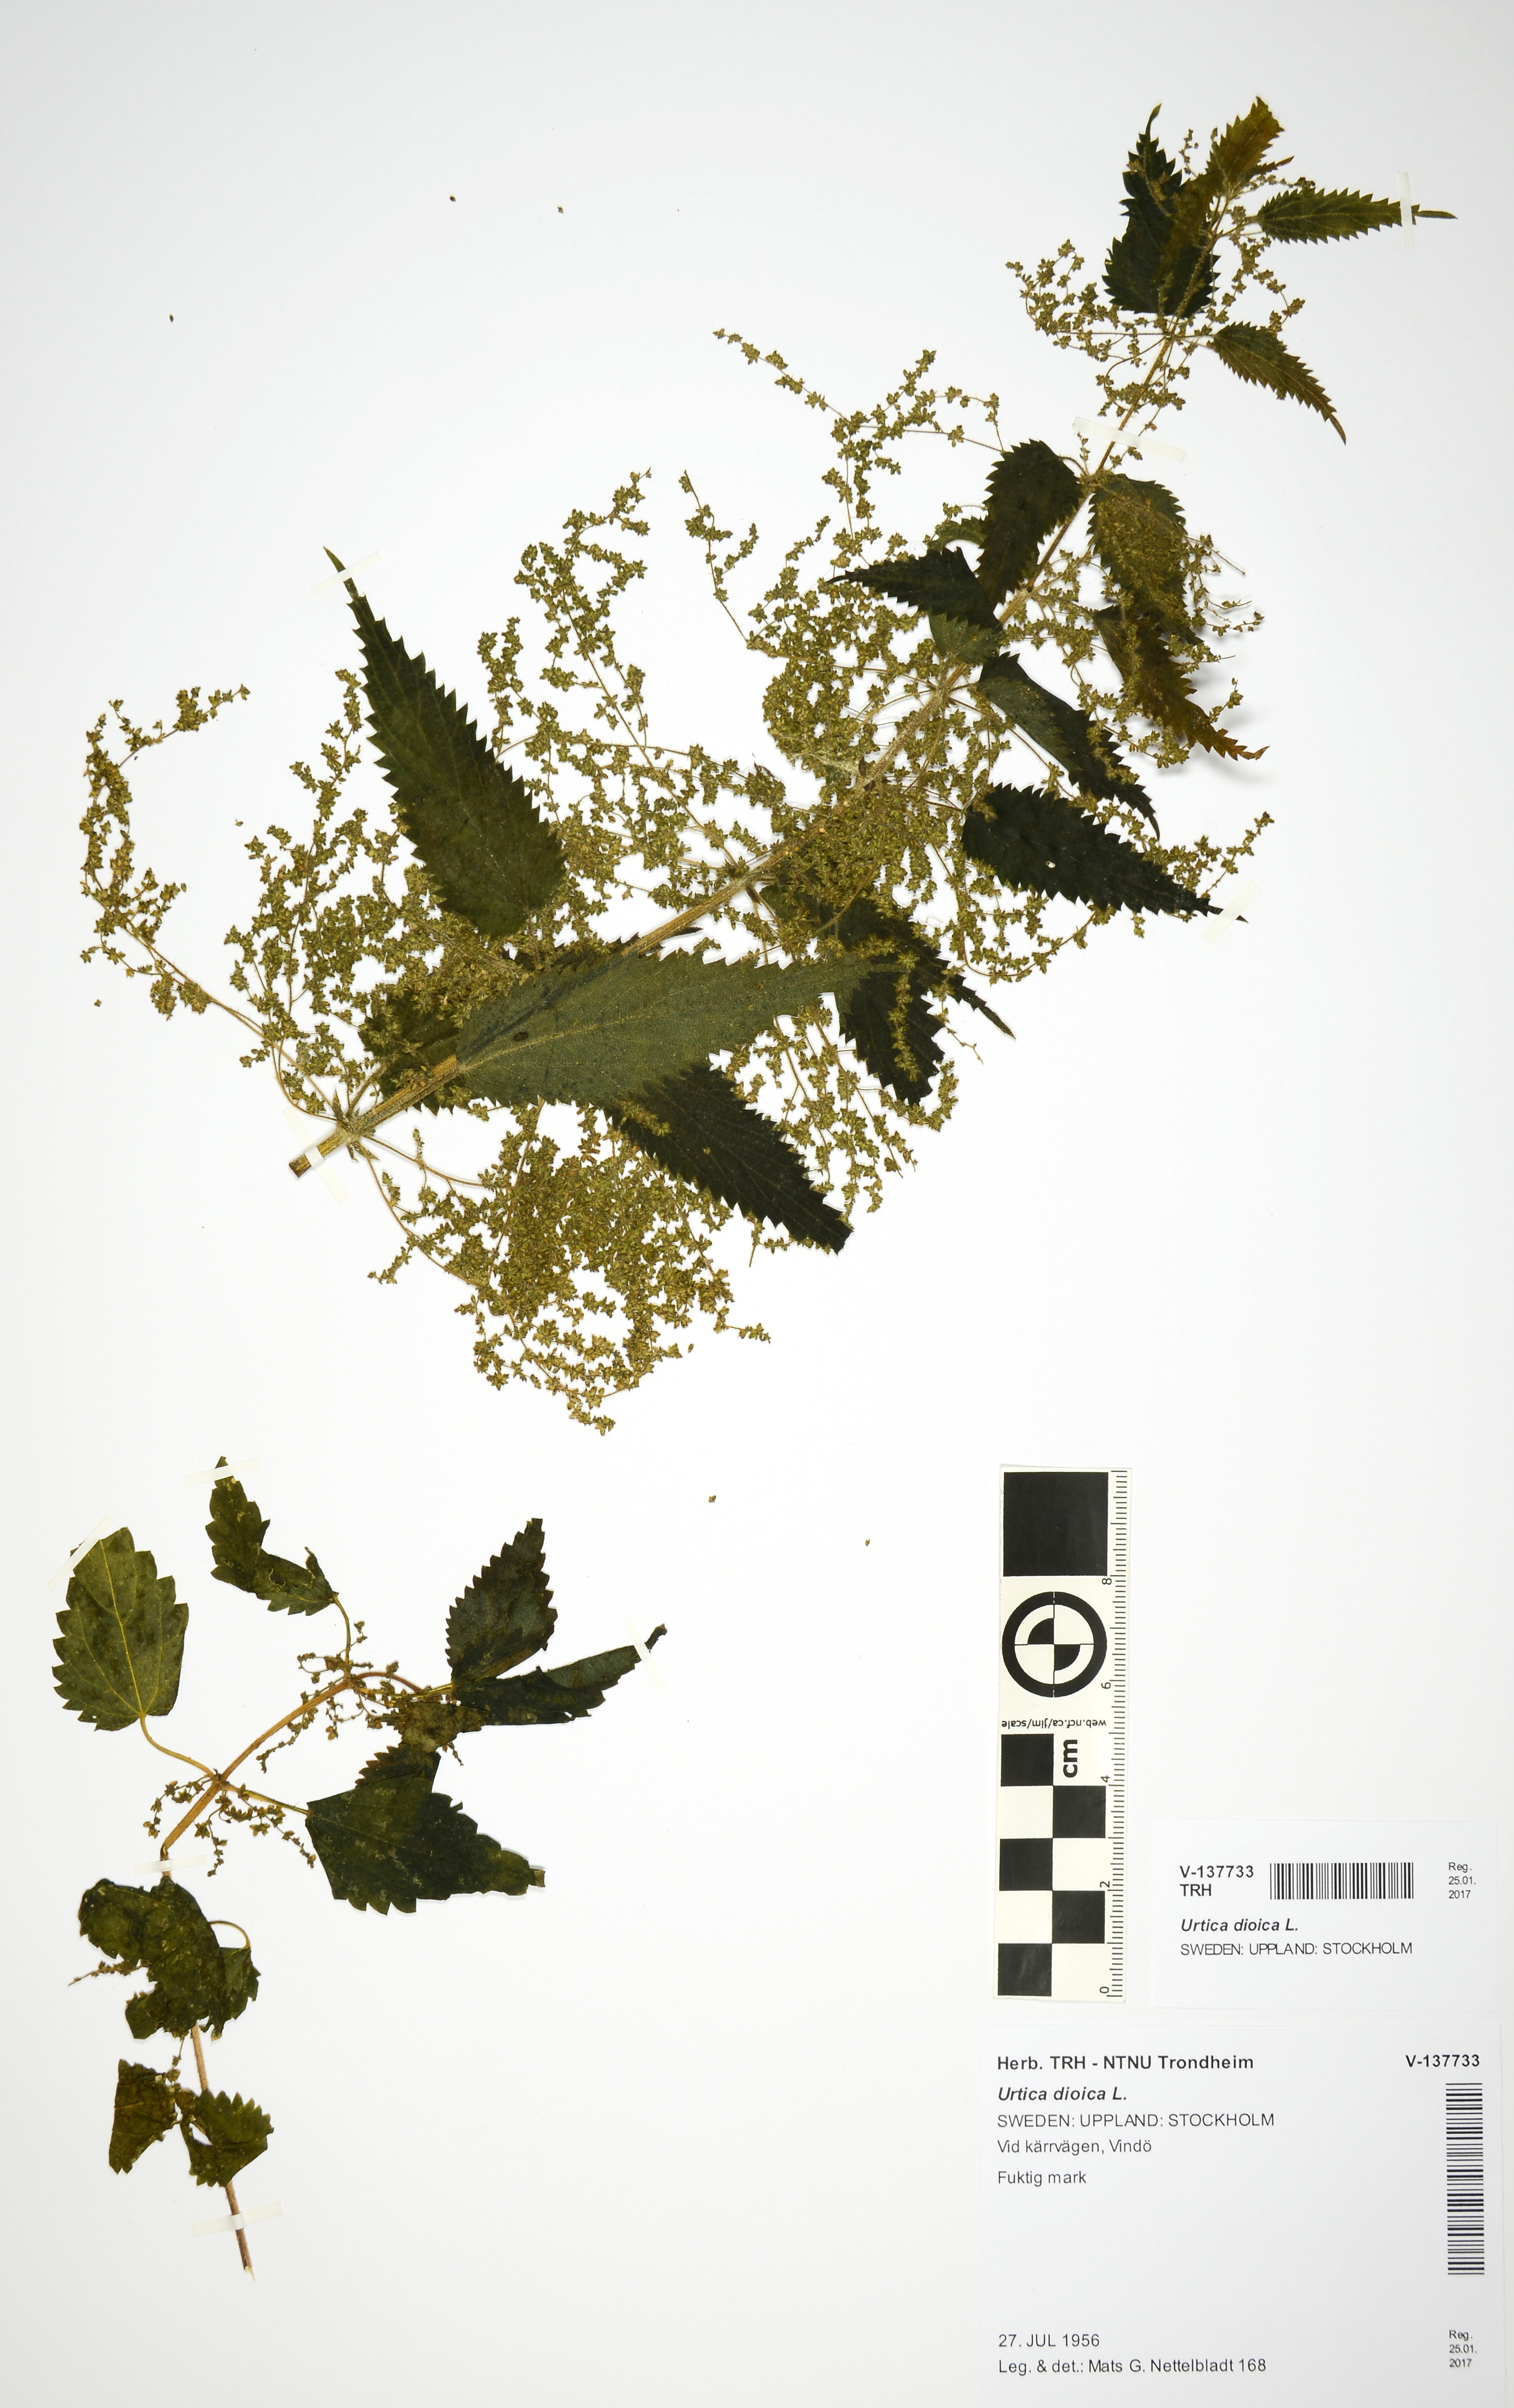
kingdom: Plantae
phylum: Tracheophyta
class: Magnoliopsida
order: Rosales
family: Urticaceae
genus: Urtica
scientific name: Urtica dioica
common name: Common nettle
